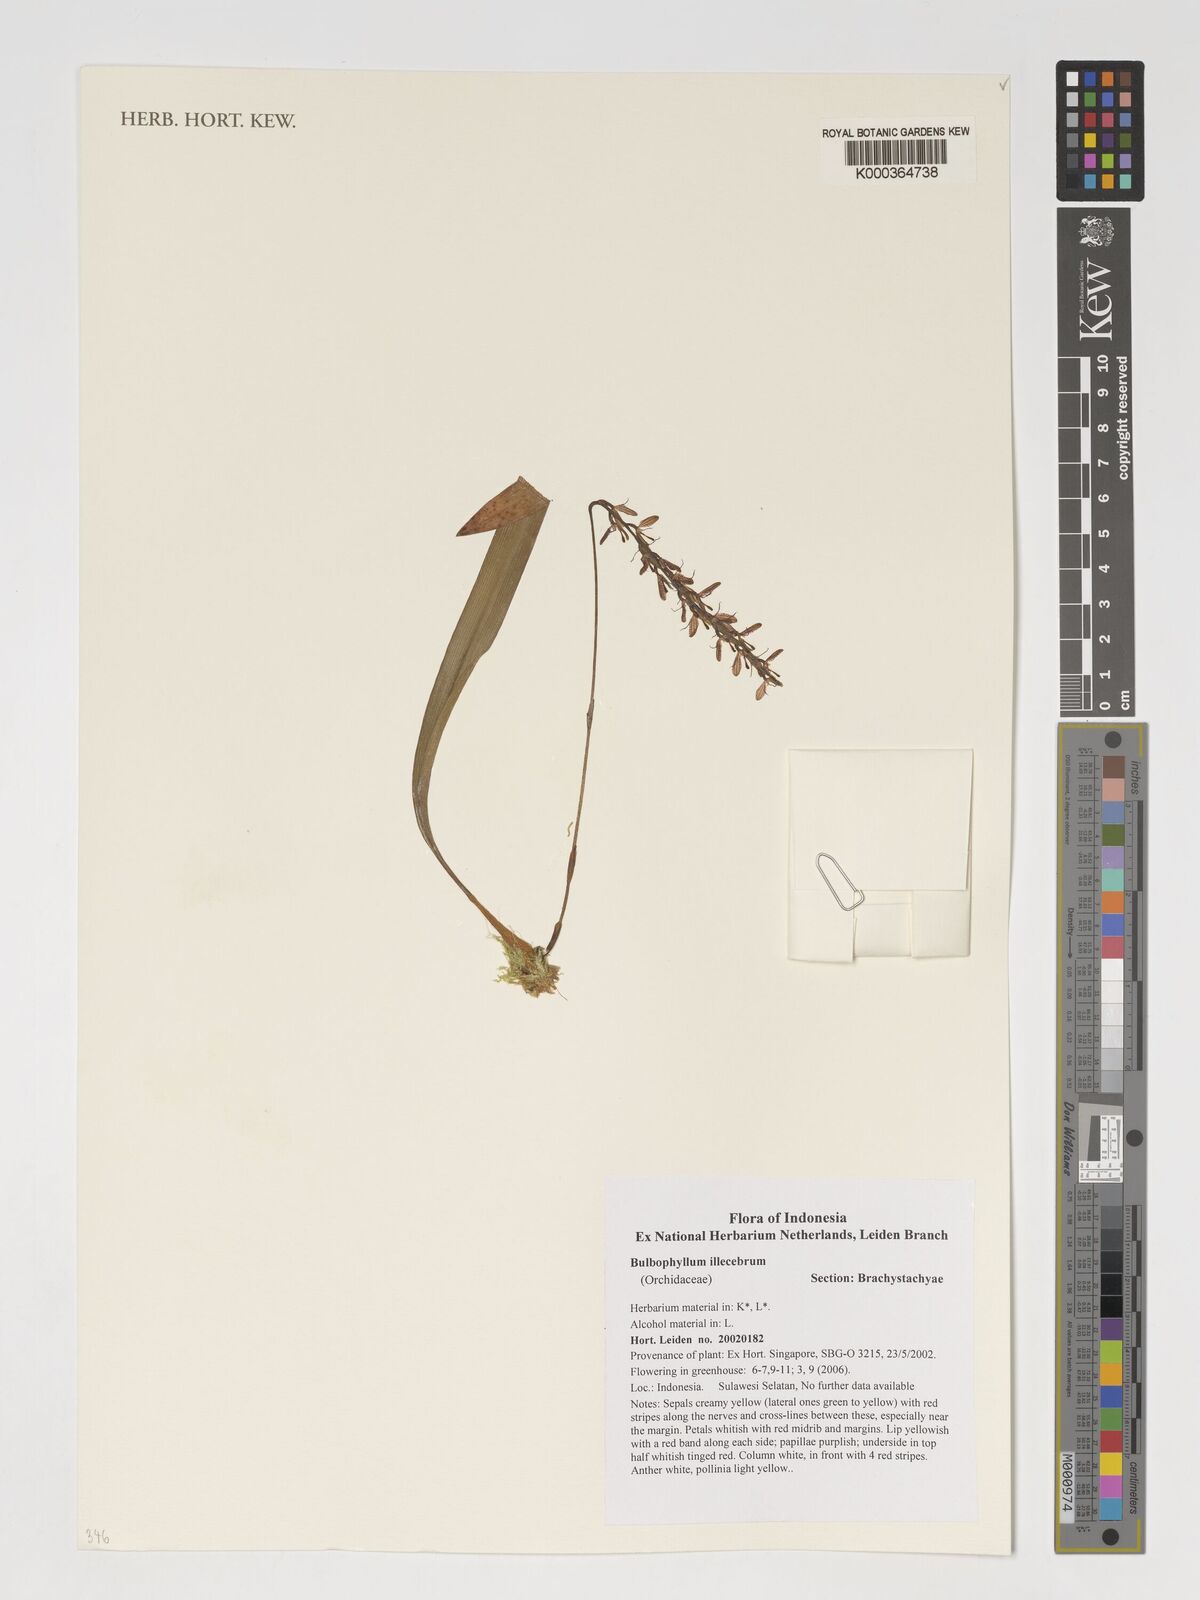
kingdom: Plantae
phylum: Tracheophyta
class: Liliopsida
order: Asparagales
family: Orchidaceae
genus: Bulbophyllum
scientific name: Bulbophyllum illecebrum
